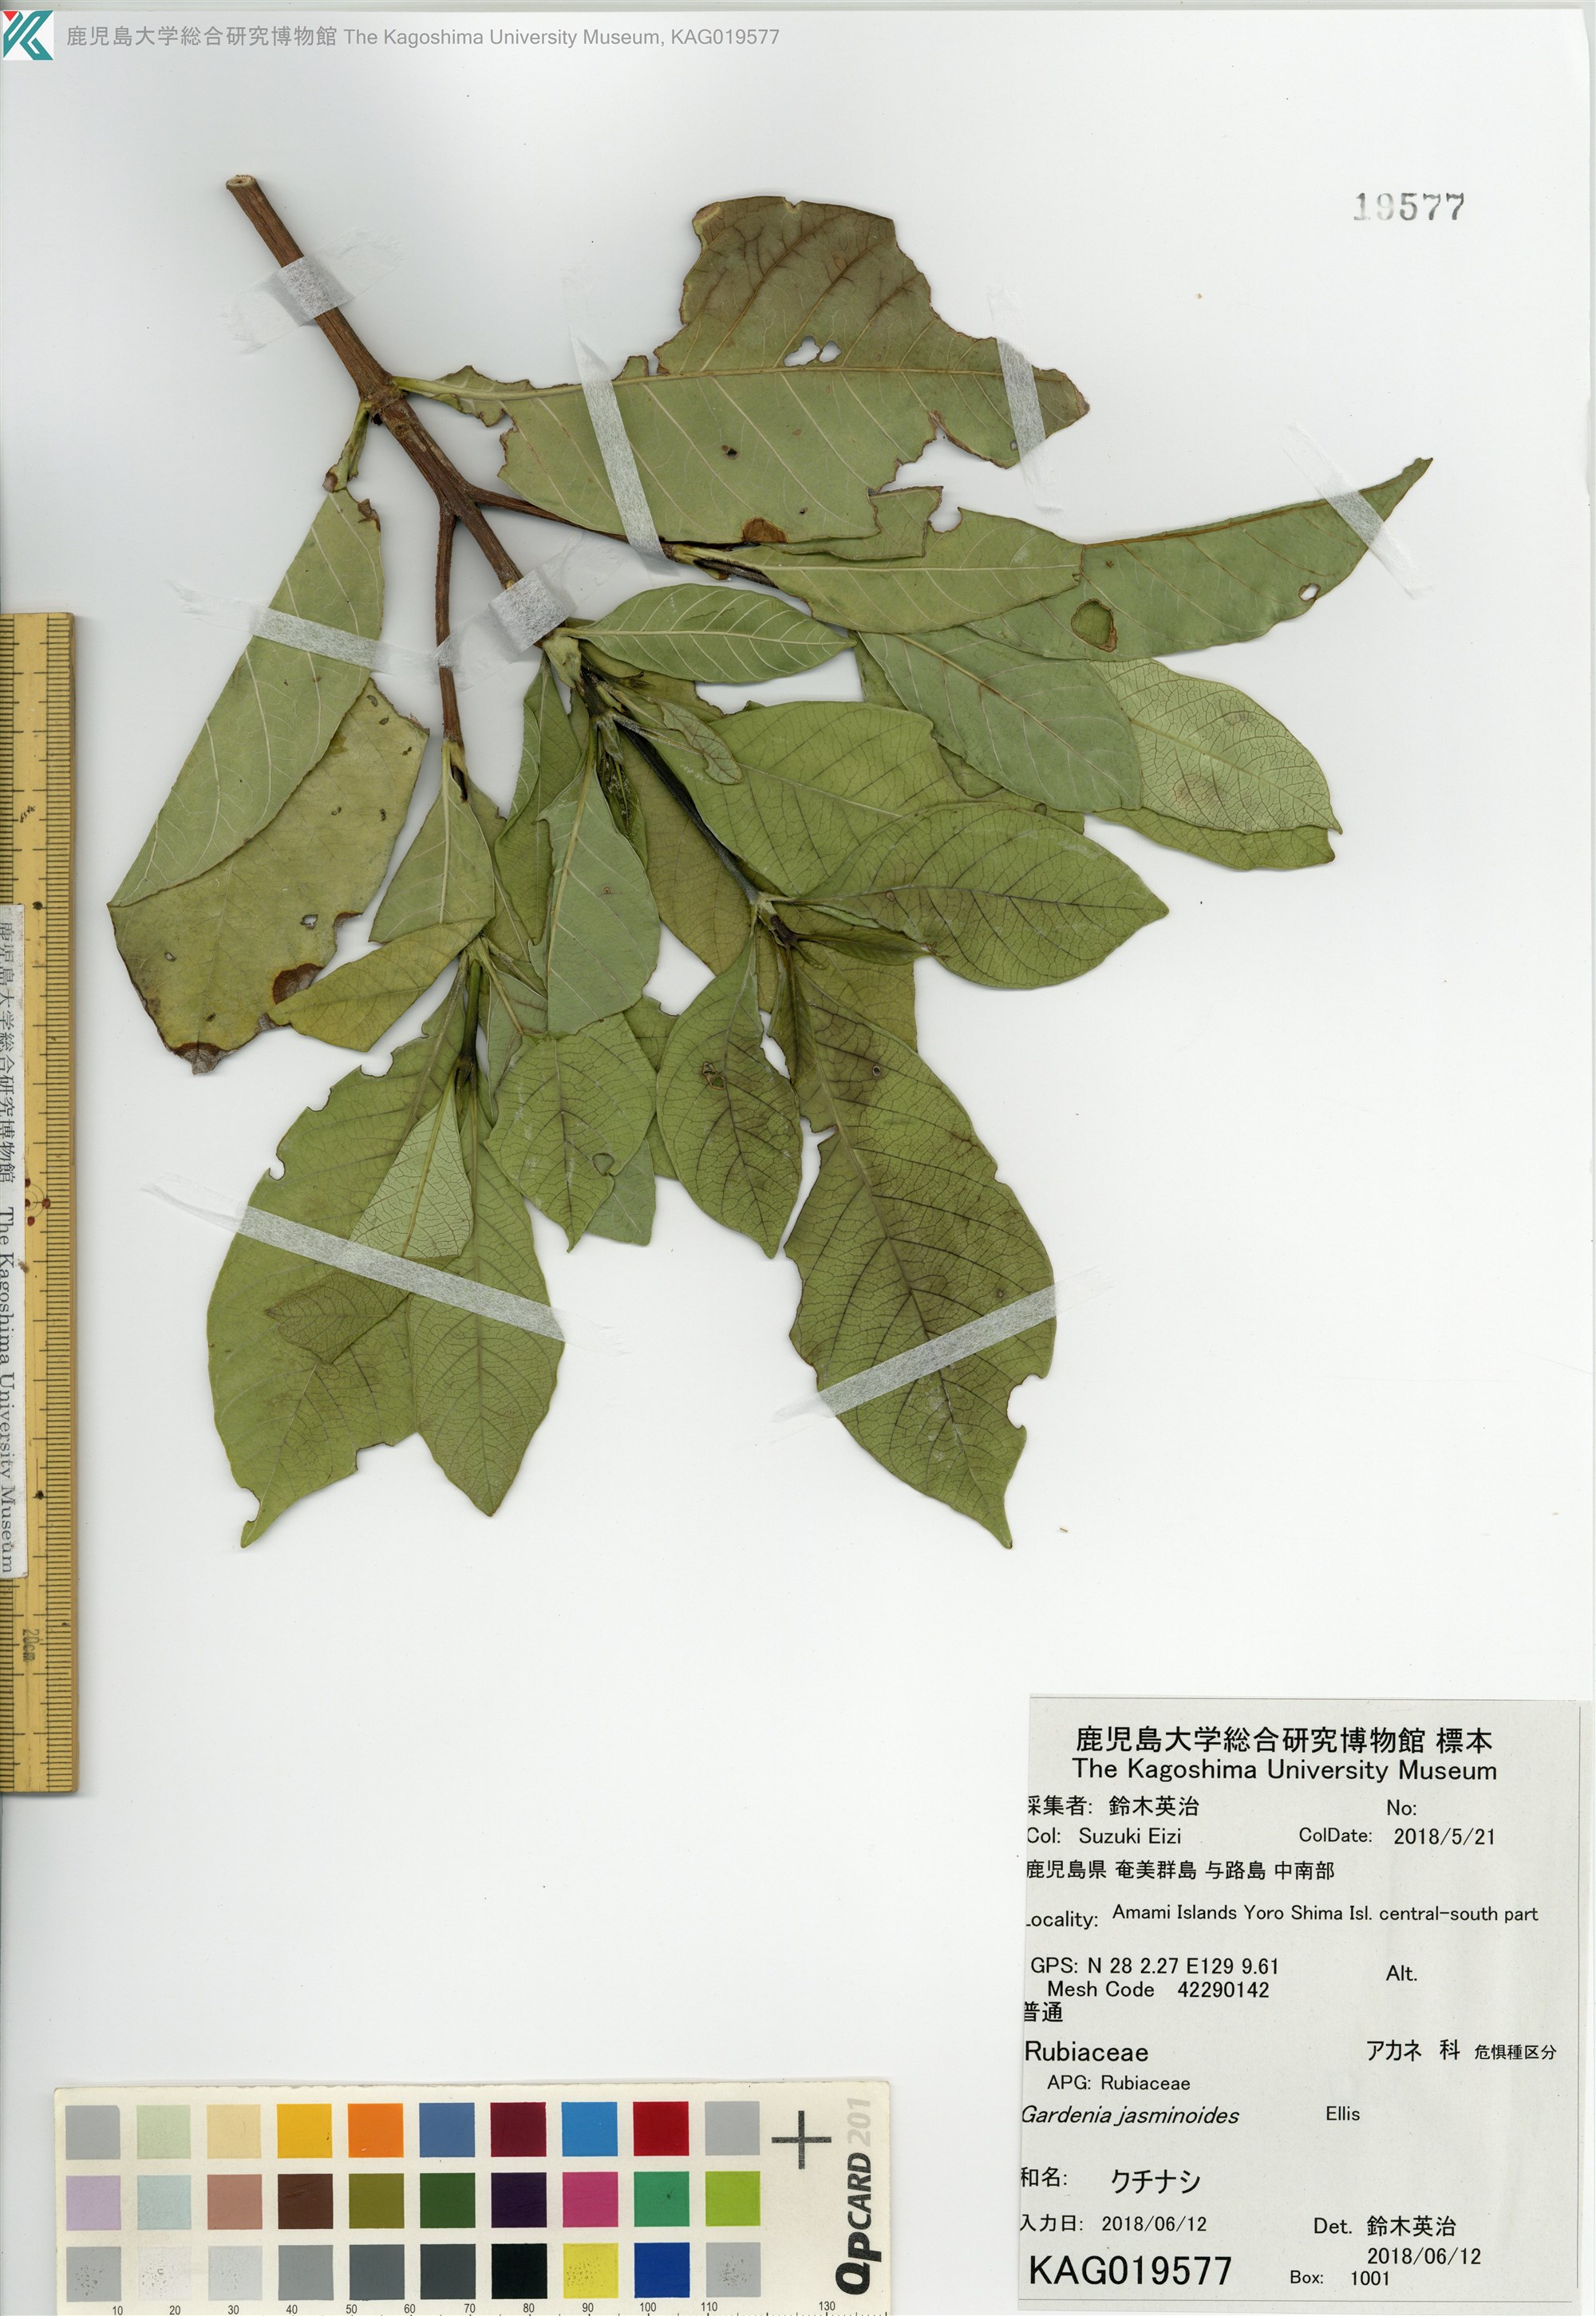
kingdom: Plantae
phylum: Tracheophyta
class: Magnoliopsida
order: Gentianales
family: Rubiaceae
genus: Gardenia
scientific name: Gardenia jasminoides
